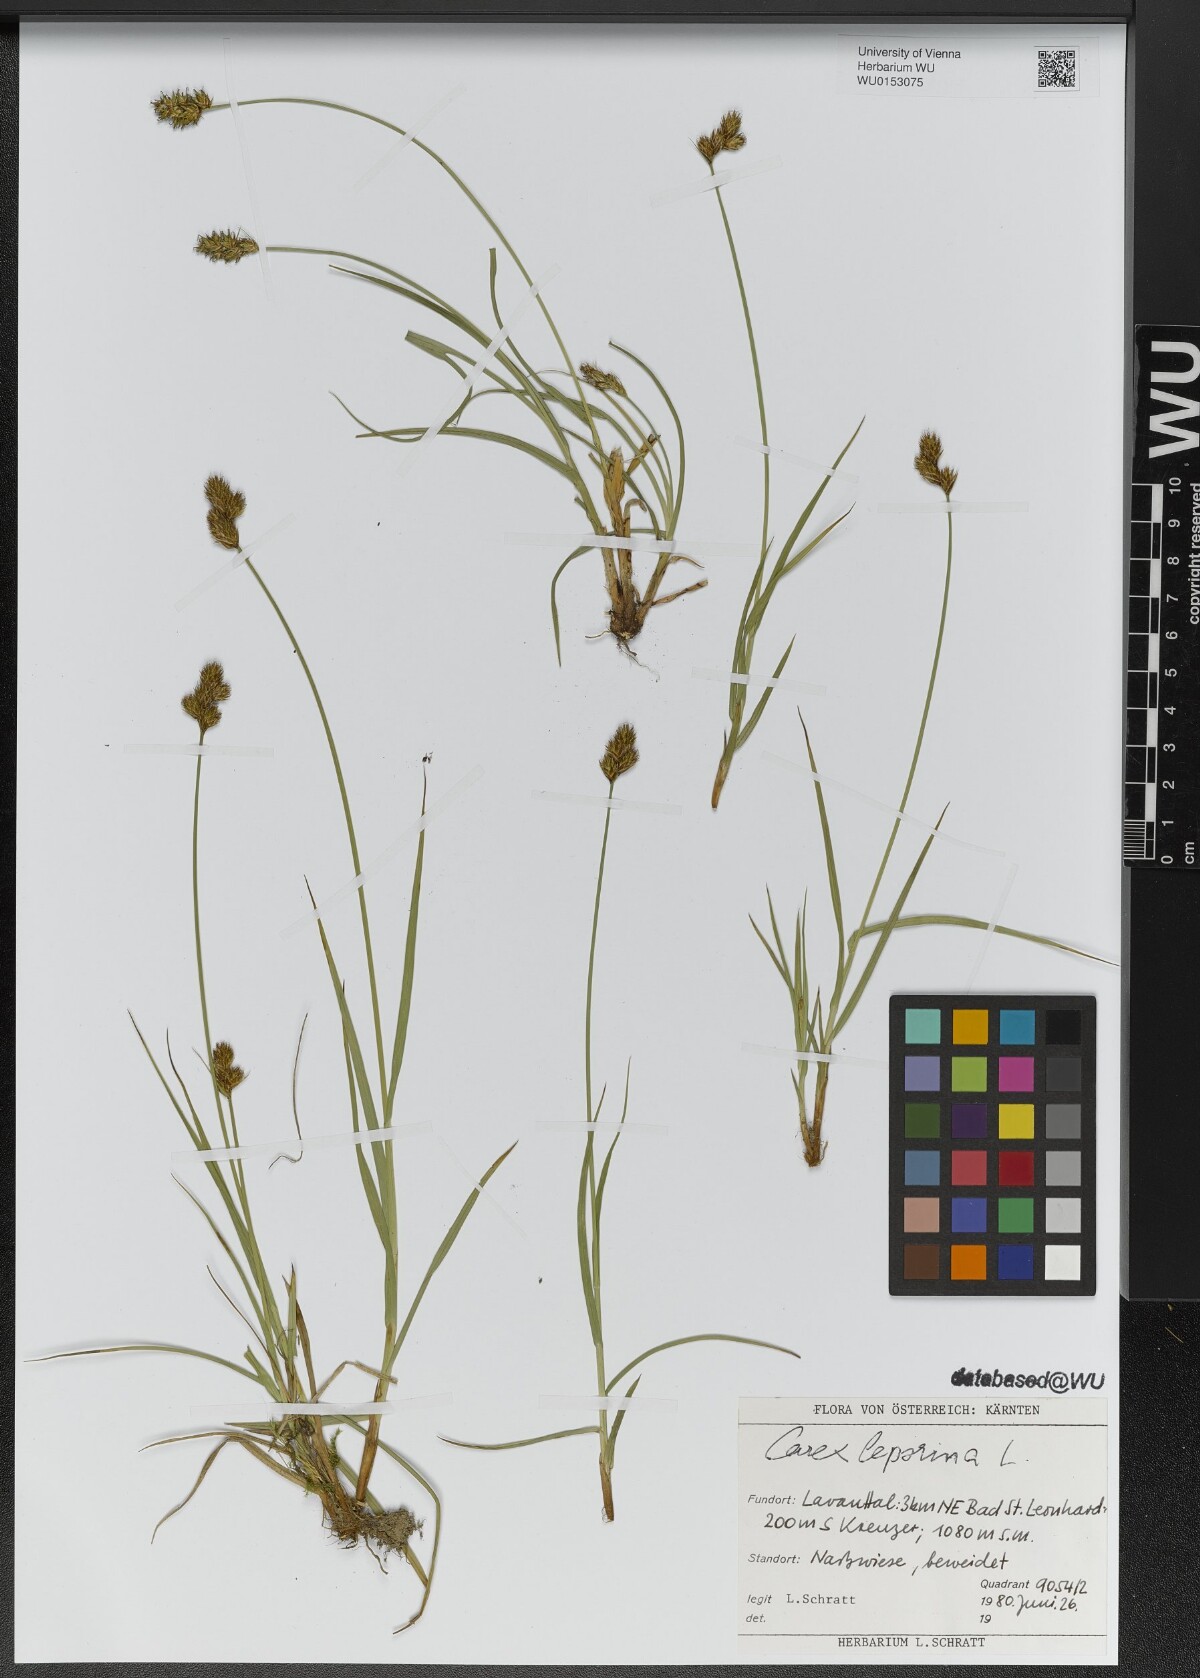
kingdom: Plantae
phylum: Tracheophyta
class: Liliopsida
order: Poales
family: Cyperaceae
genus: Carex
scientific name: Carex leporina
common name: Oval sedge
